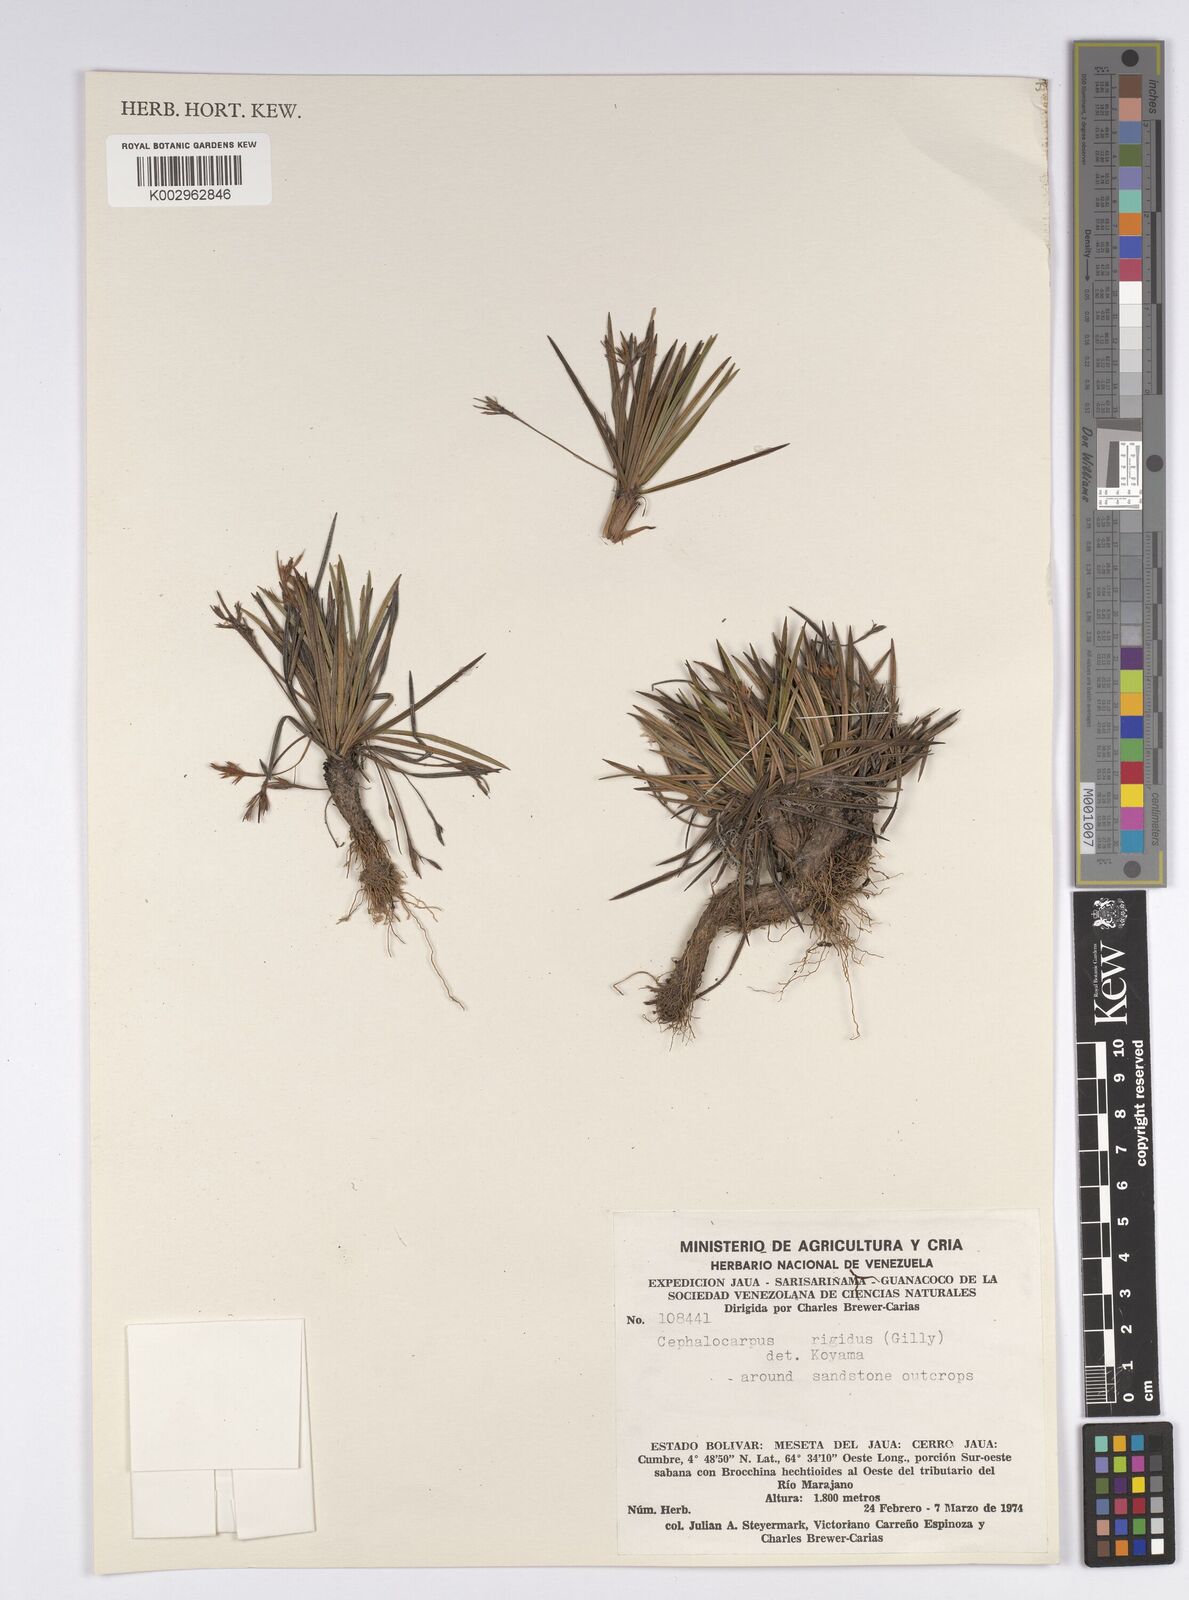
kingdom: Plantae
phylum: Tracheophyta
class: Liliopsida
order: Poales
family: Cyperaceae
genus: Cephalocarpus
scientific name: Cephalocarpus rigidus
